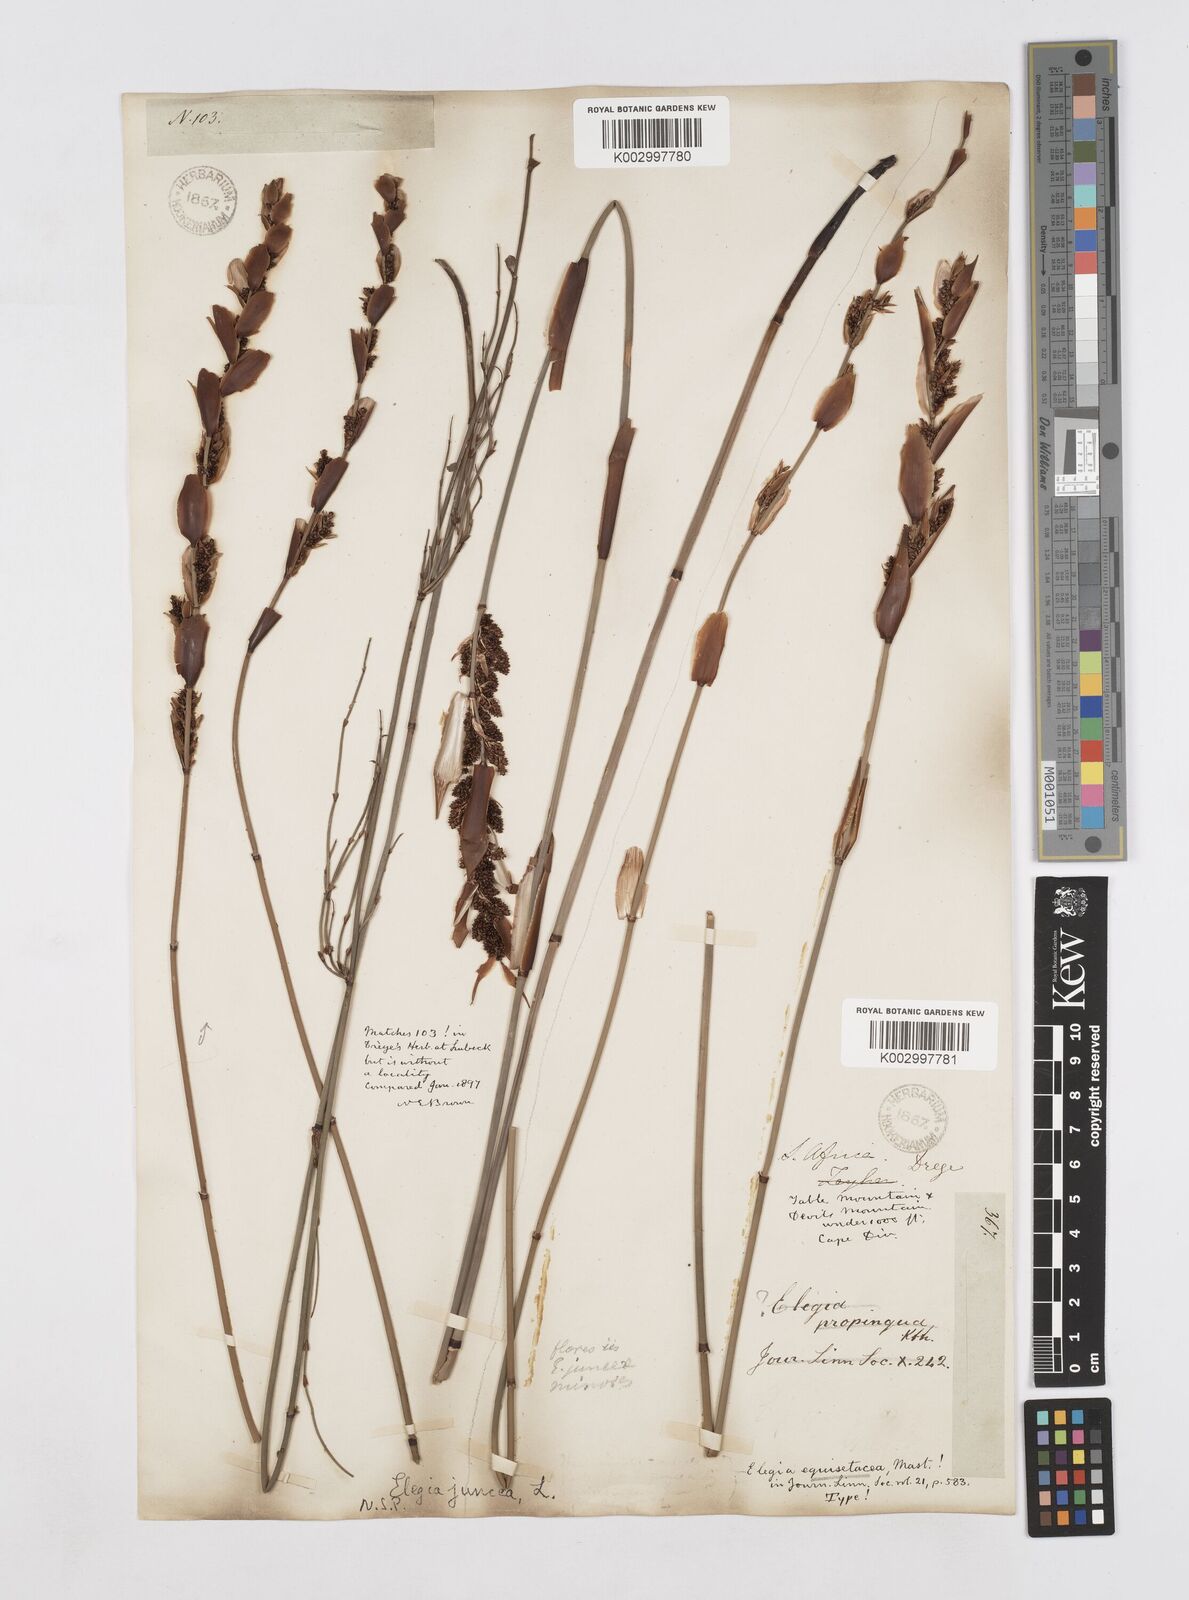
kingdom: Plantae
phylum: Tracheophyta
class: Liliopsida
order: Poales
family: Restionaceae
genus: Elegia
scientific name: Elegia juncea
